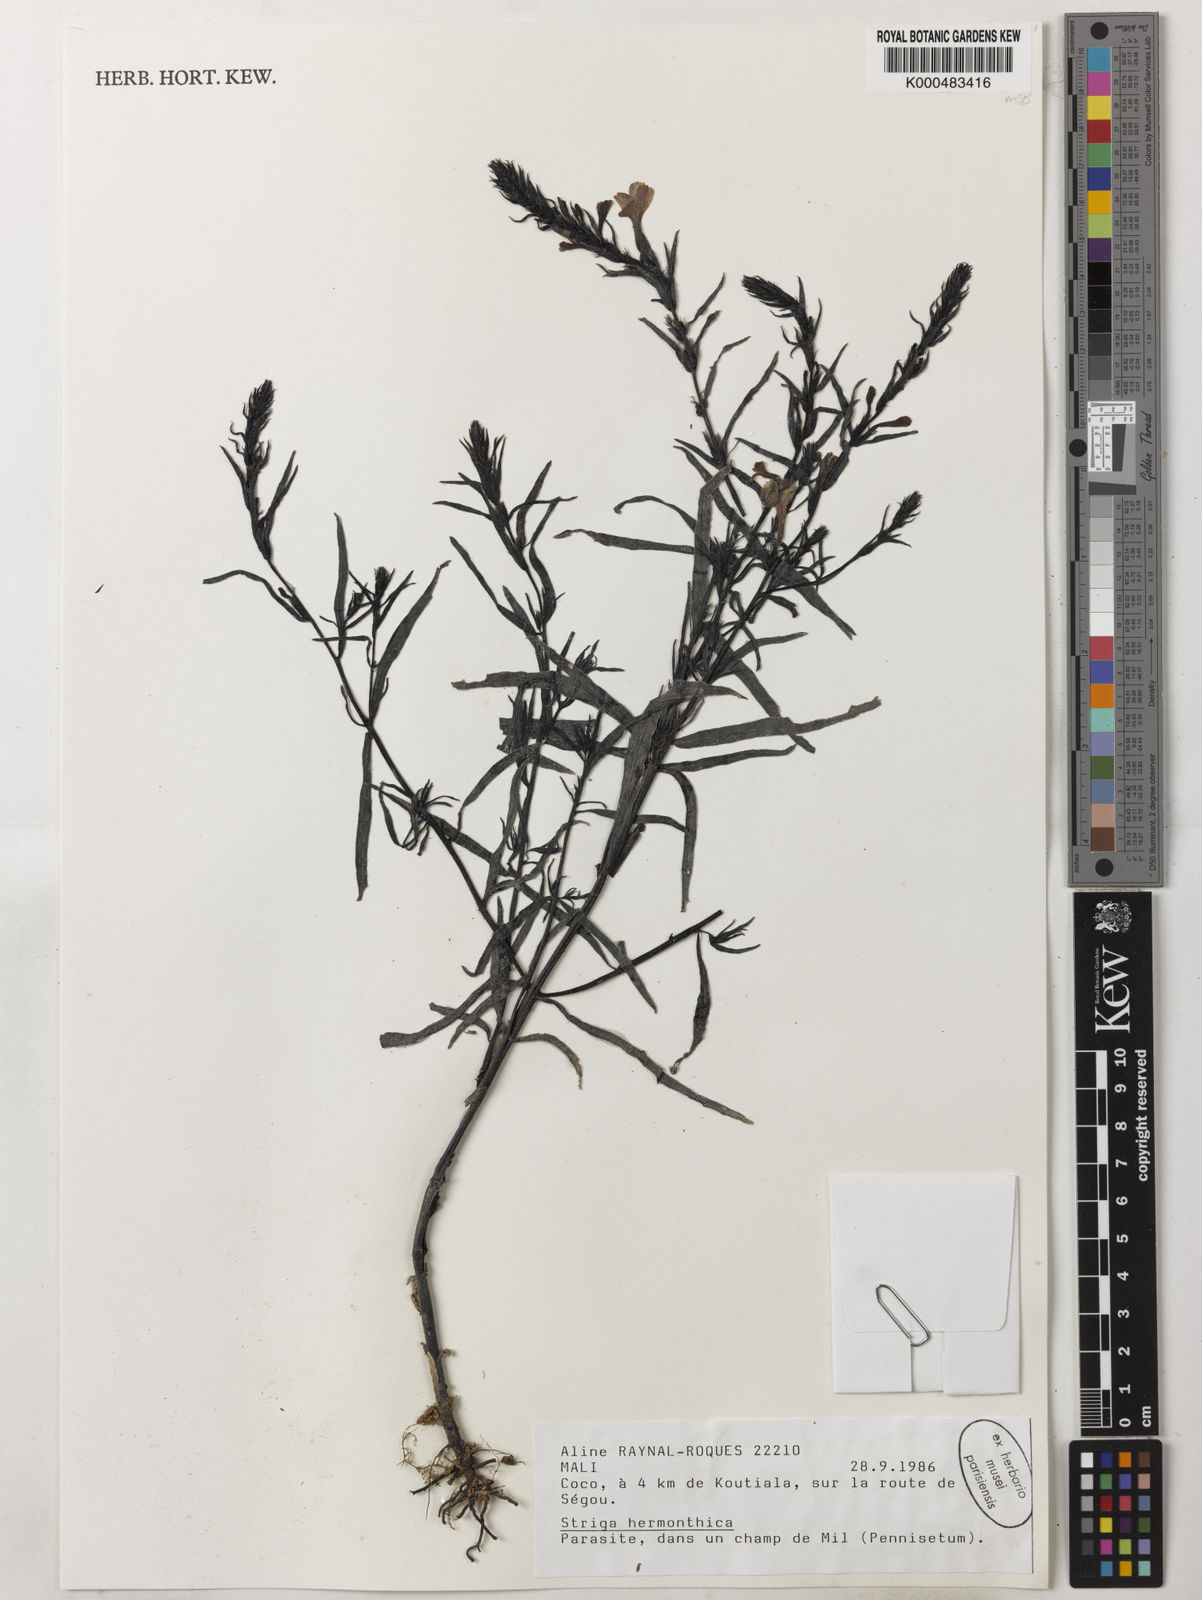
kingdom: Plantae
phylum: Tracheophyta
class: Magnoliopsida
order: Lamiales
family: Orobanchaceae
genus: Striga
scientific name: Striga hermonthica
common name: Purple witchweed
